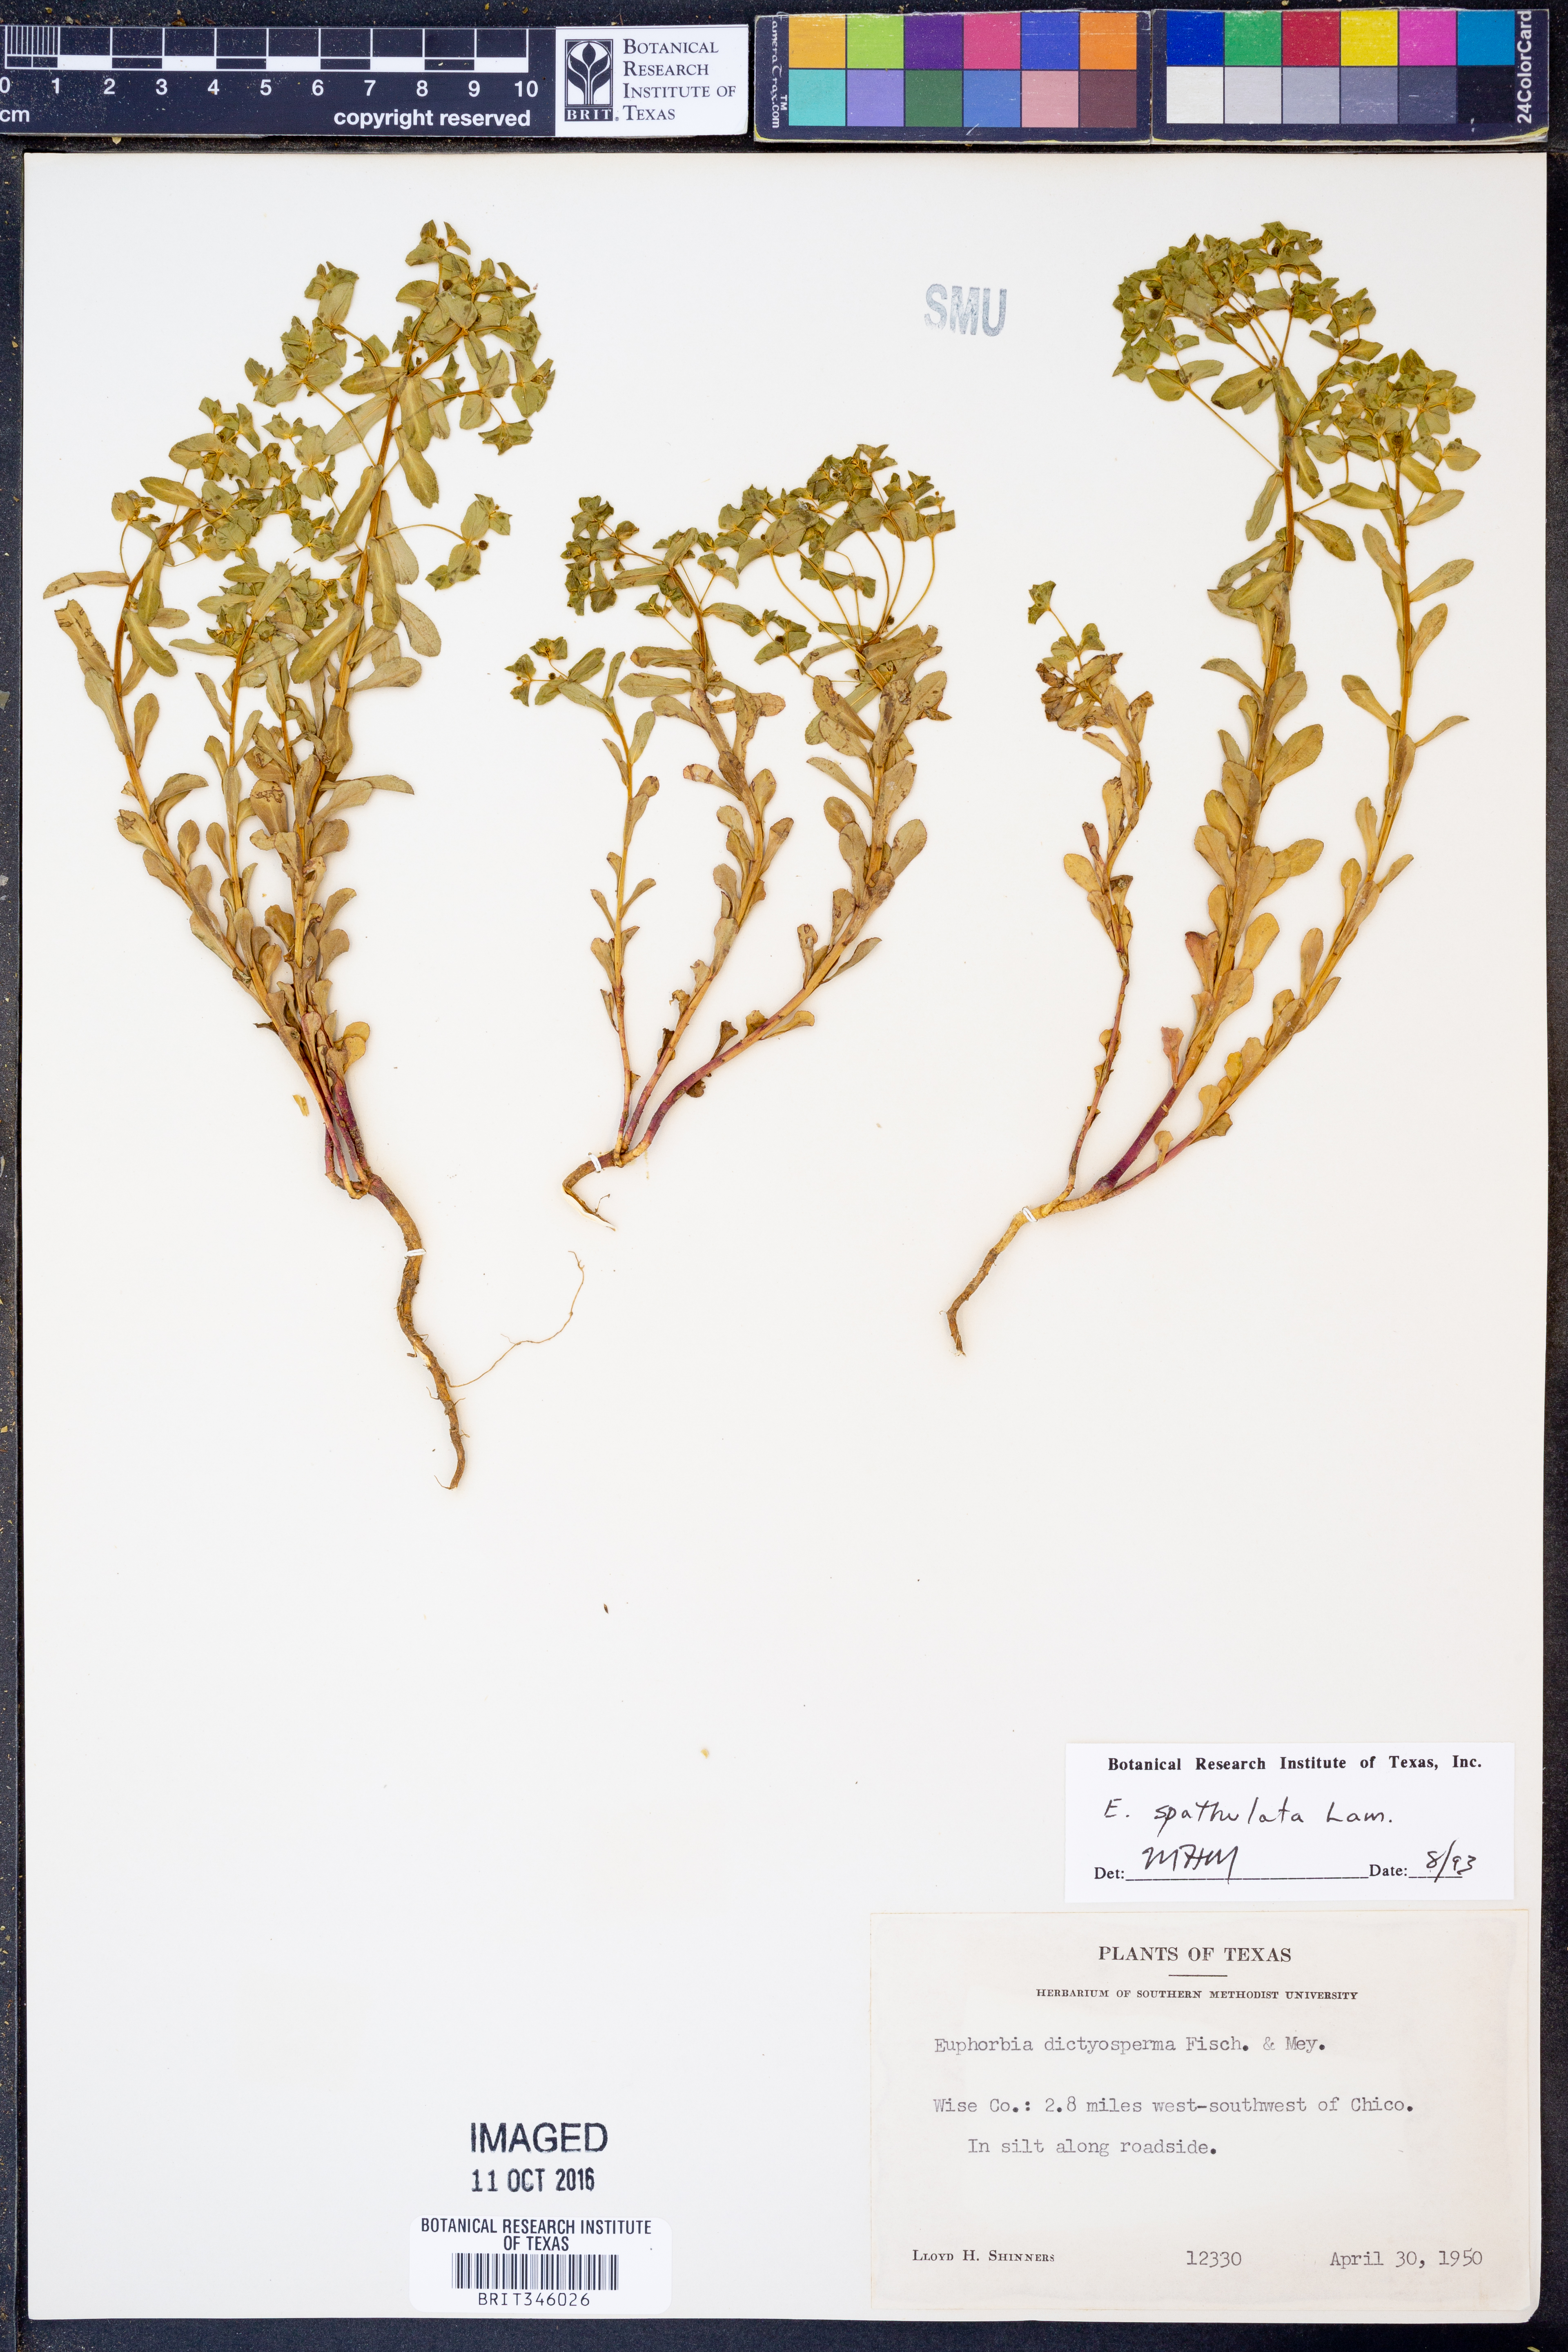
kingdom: Plantae
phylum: Tracheophyta
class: Magnoliopsida
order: Malpighiales
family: Euphorbiaceae
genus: Euphorbia
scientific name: Euphorbia spathulata
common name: Blunt spurge
